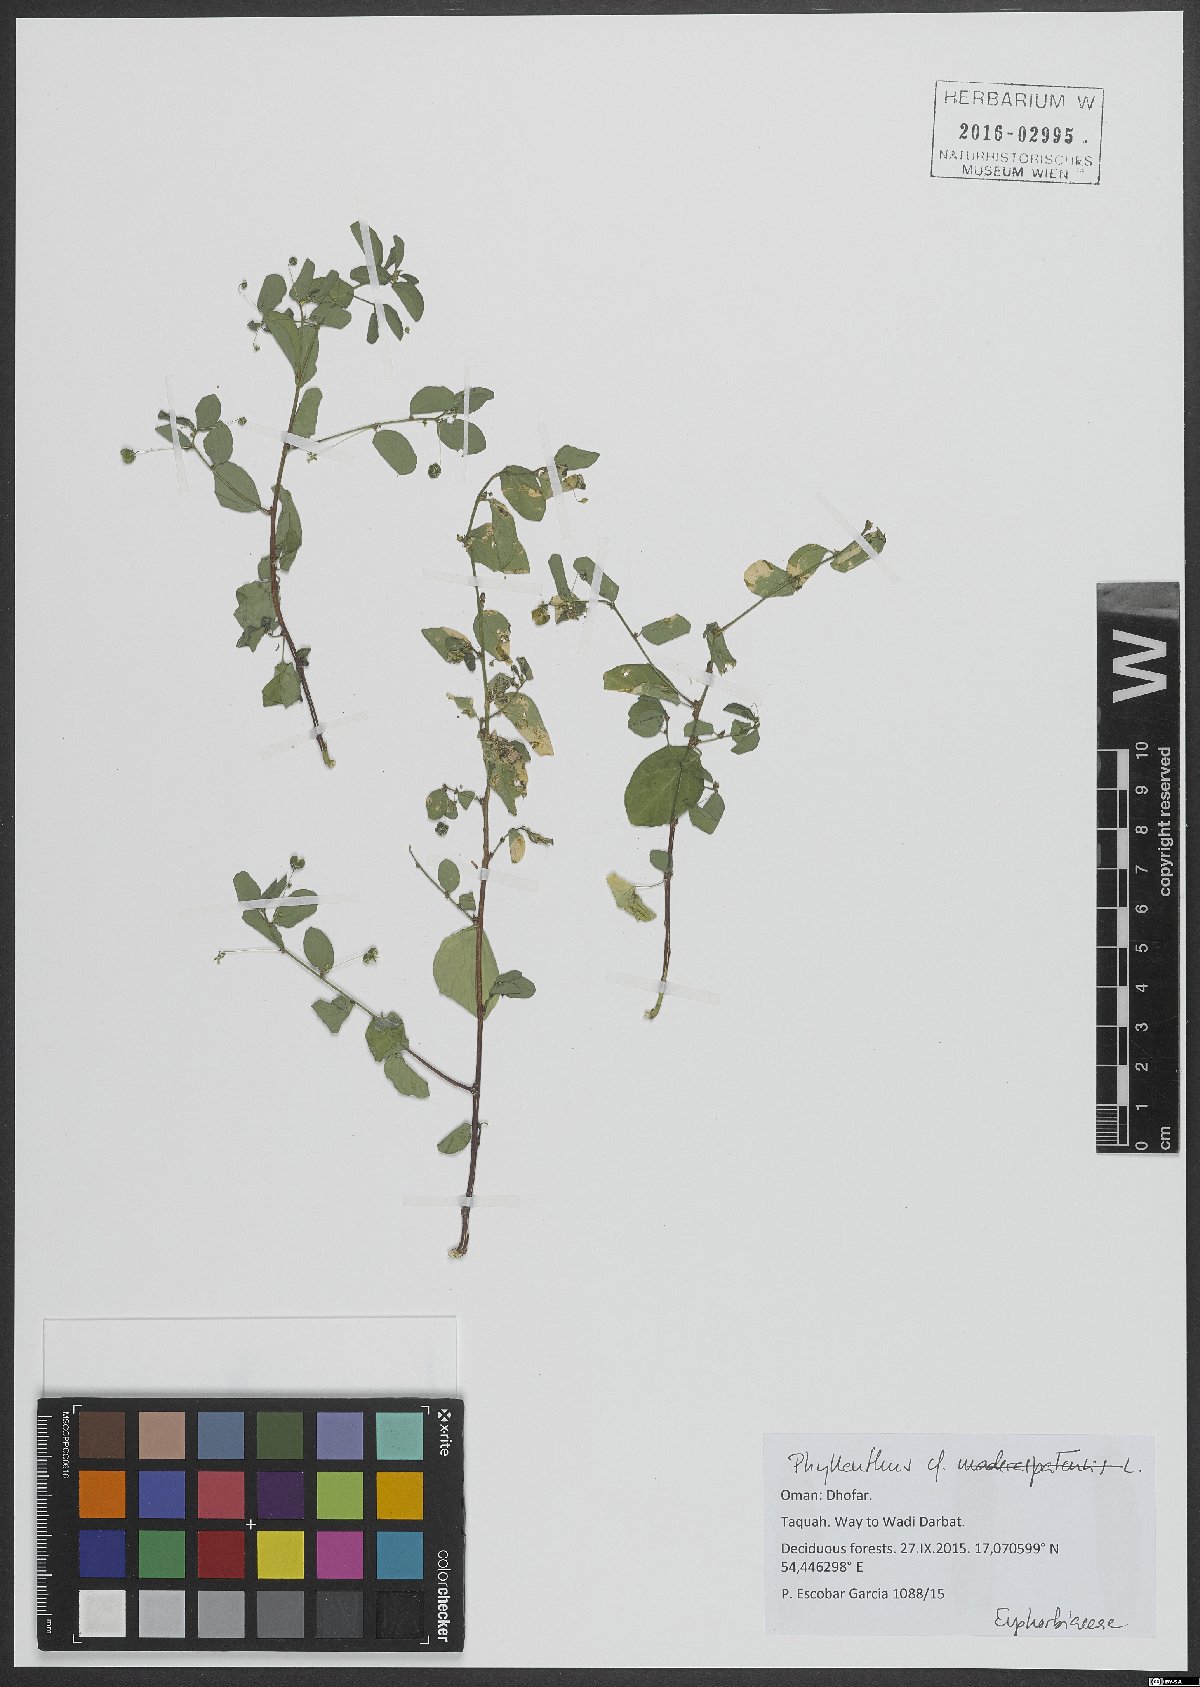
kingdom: Plantae
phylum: Tracheophyta
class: Magnoliopsida
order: Malpighiales
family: Phyllanthaceae
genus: Phyllanthus
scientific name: Phyllanthus
